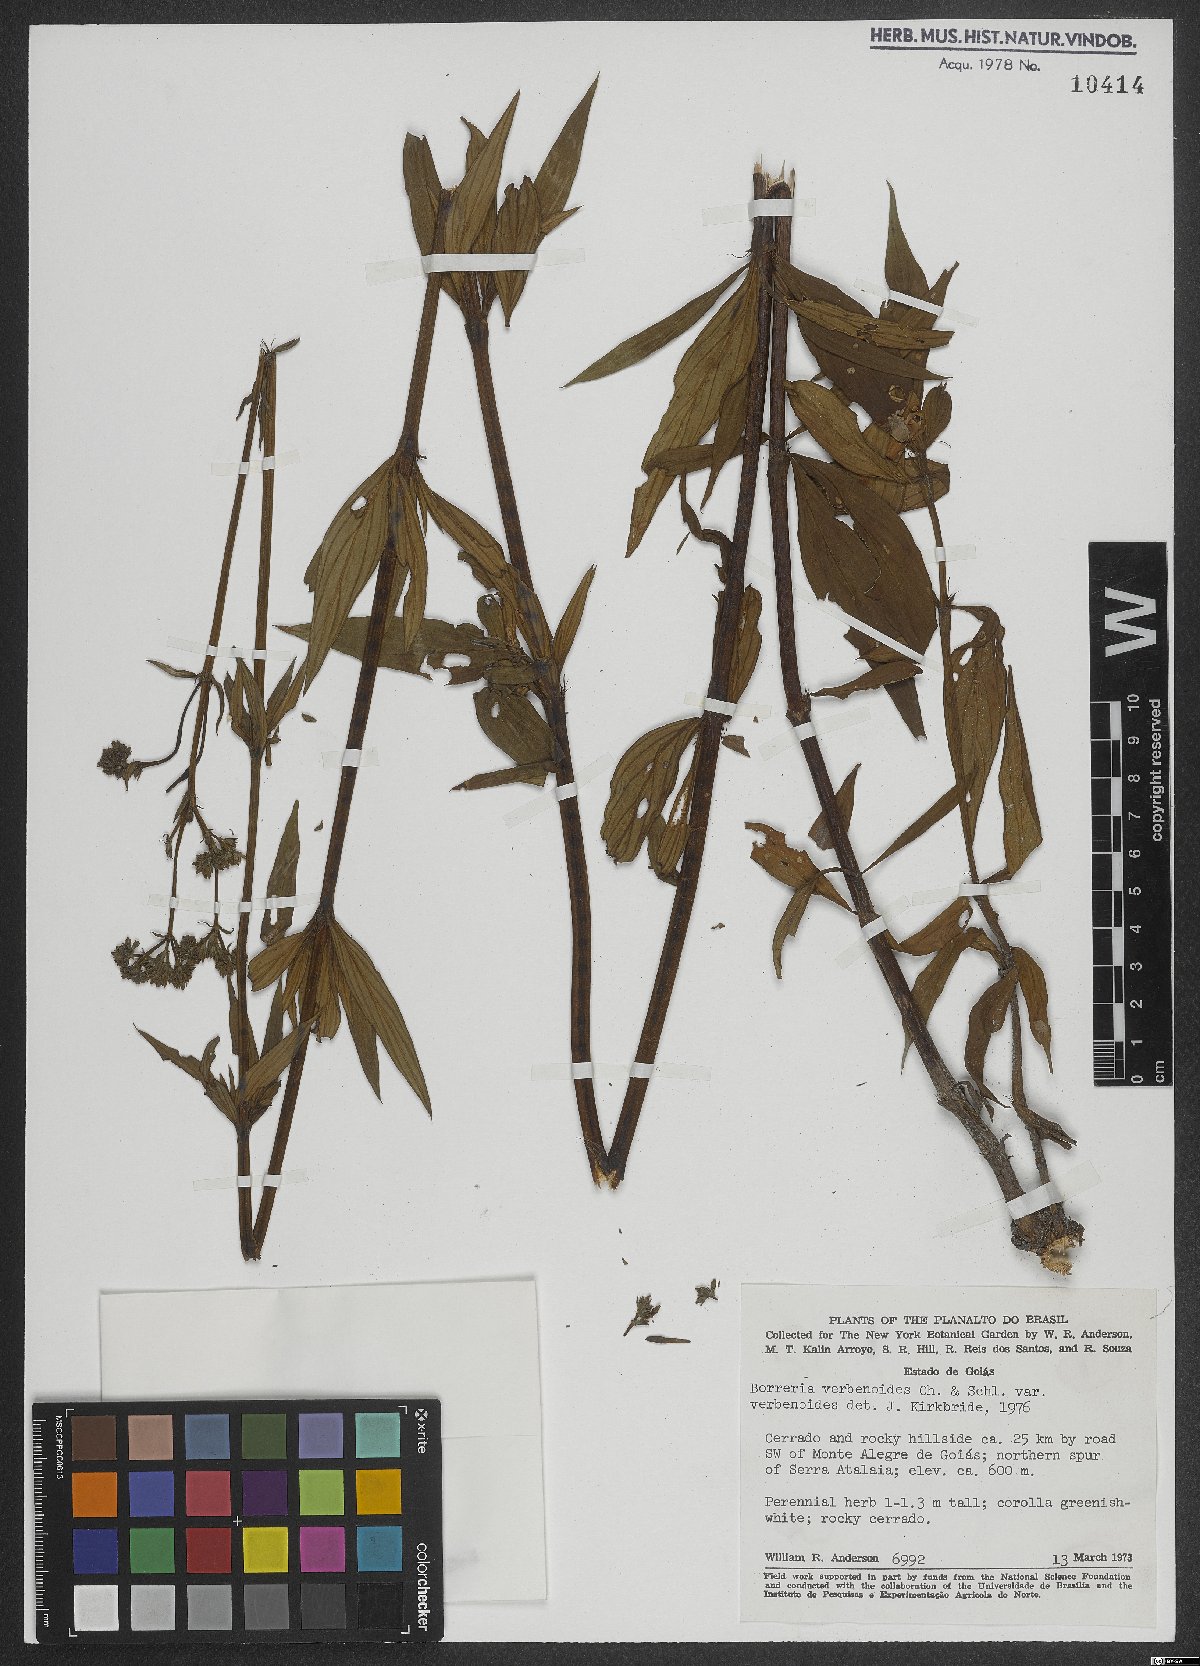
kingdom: Plantae
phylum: Tracheophyta
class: Magnoliopsida
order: Gentianales
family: Rubiaceae
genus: Spermacoce
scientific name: Spermacoce verbenoides
